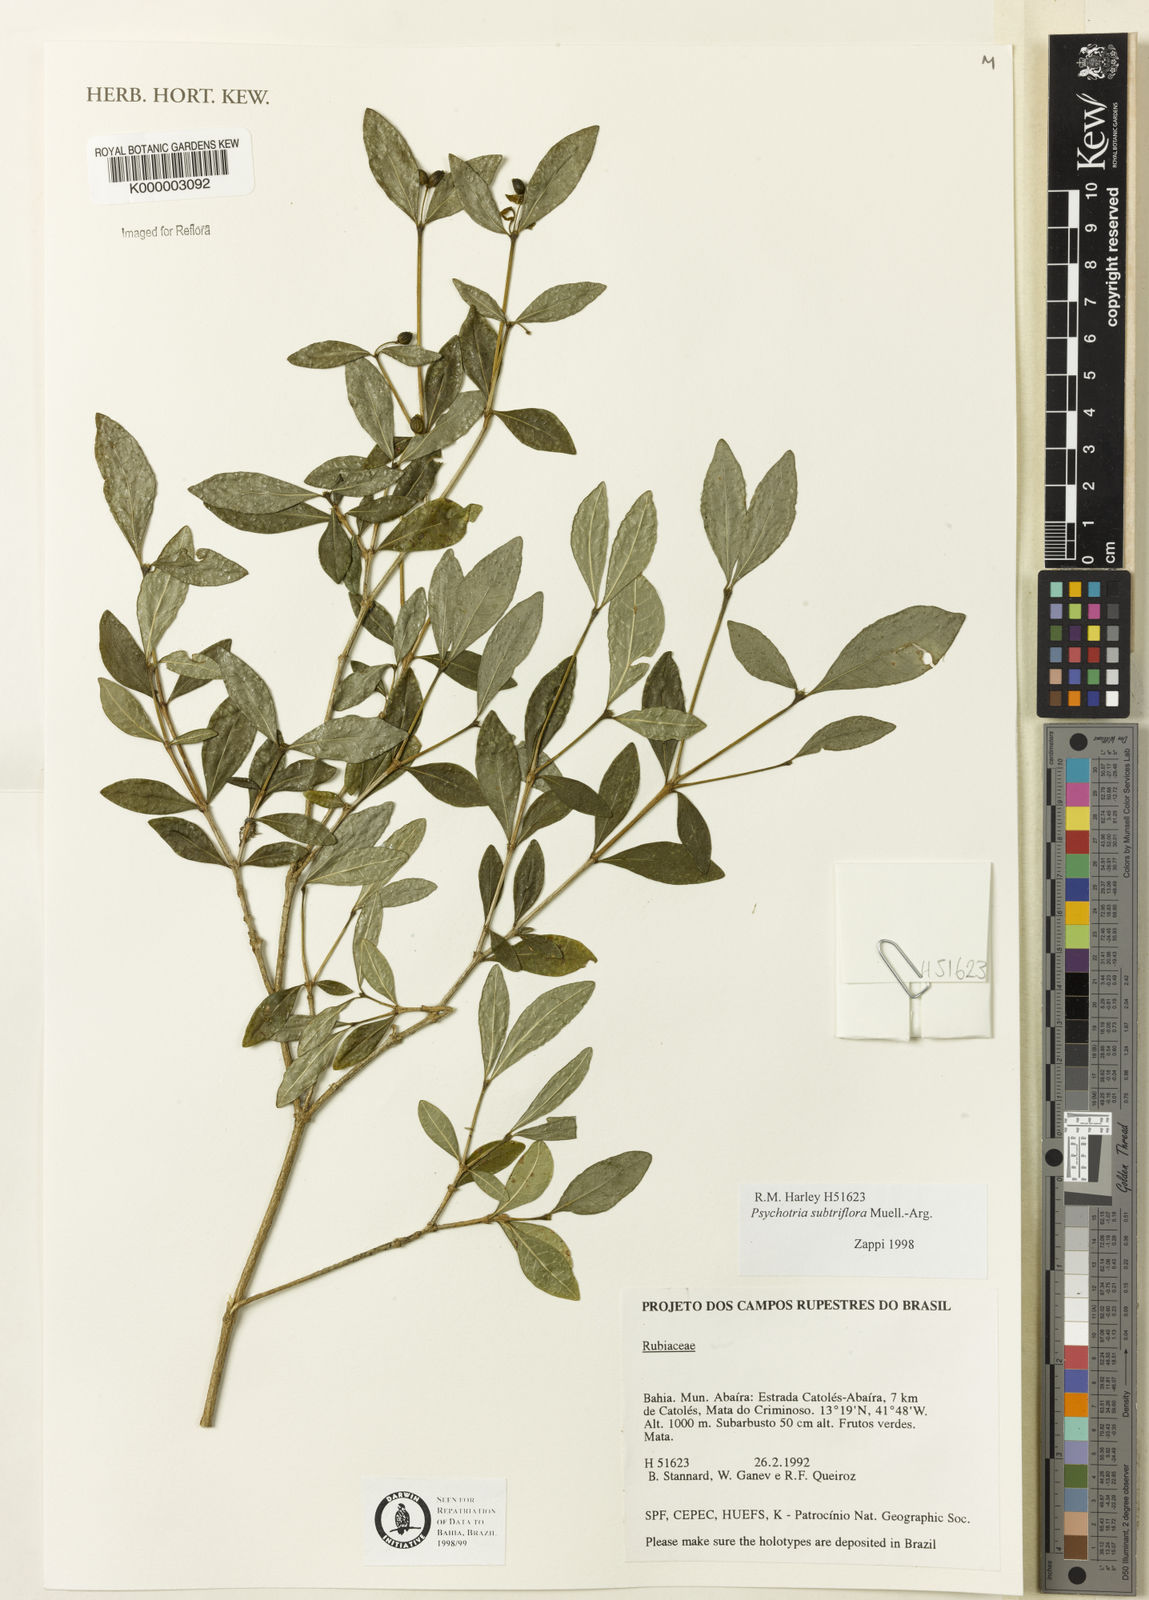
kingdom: Plantae
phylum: Tracheophyta
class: Magnoliopsida
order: Gentianales
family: Rubiaceae
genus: Psychotria
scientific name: Psychotria subtriflora
